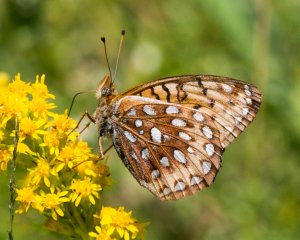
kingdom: Animalia
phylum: Arthropoda
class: Insecta
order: Lepidoptera
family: Nymphalidae
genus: Speyeria
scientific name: Speyeria cybele
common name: Great Spangled Fritillary
